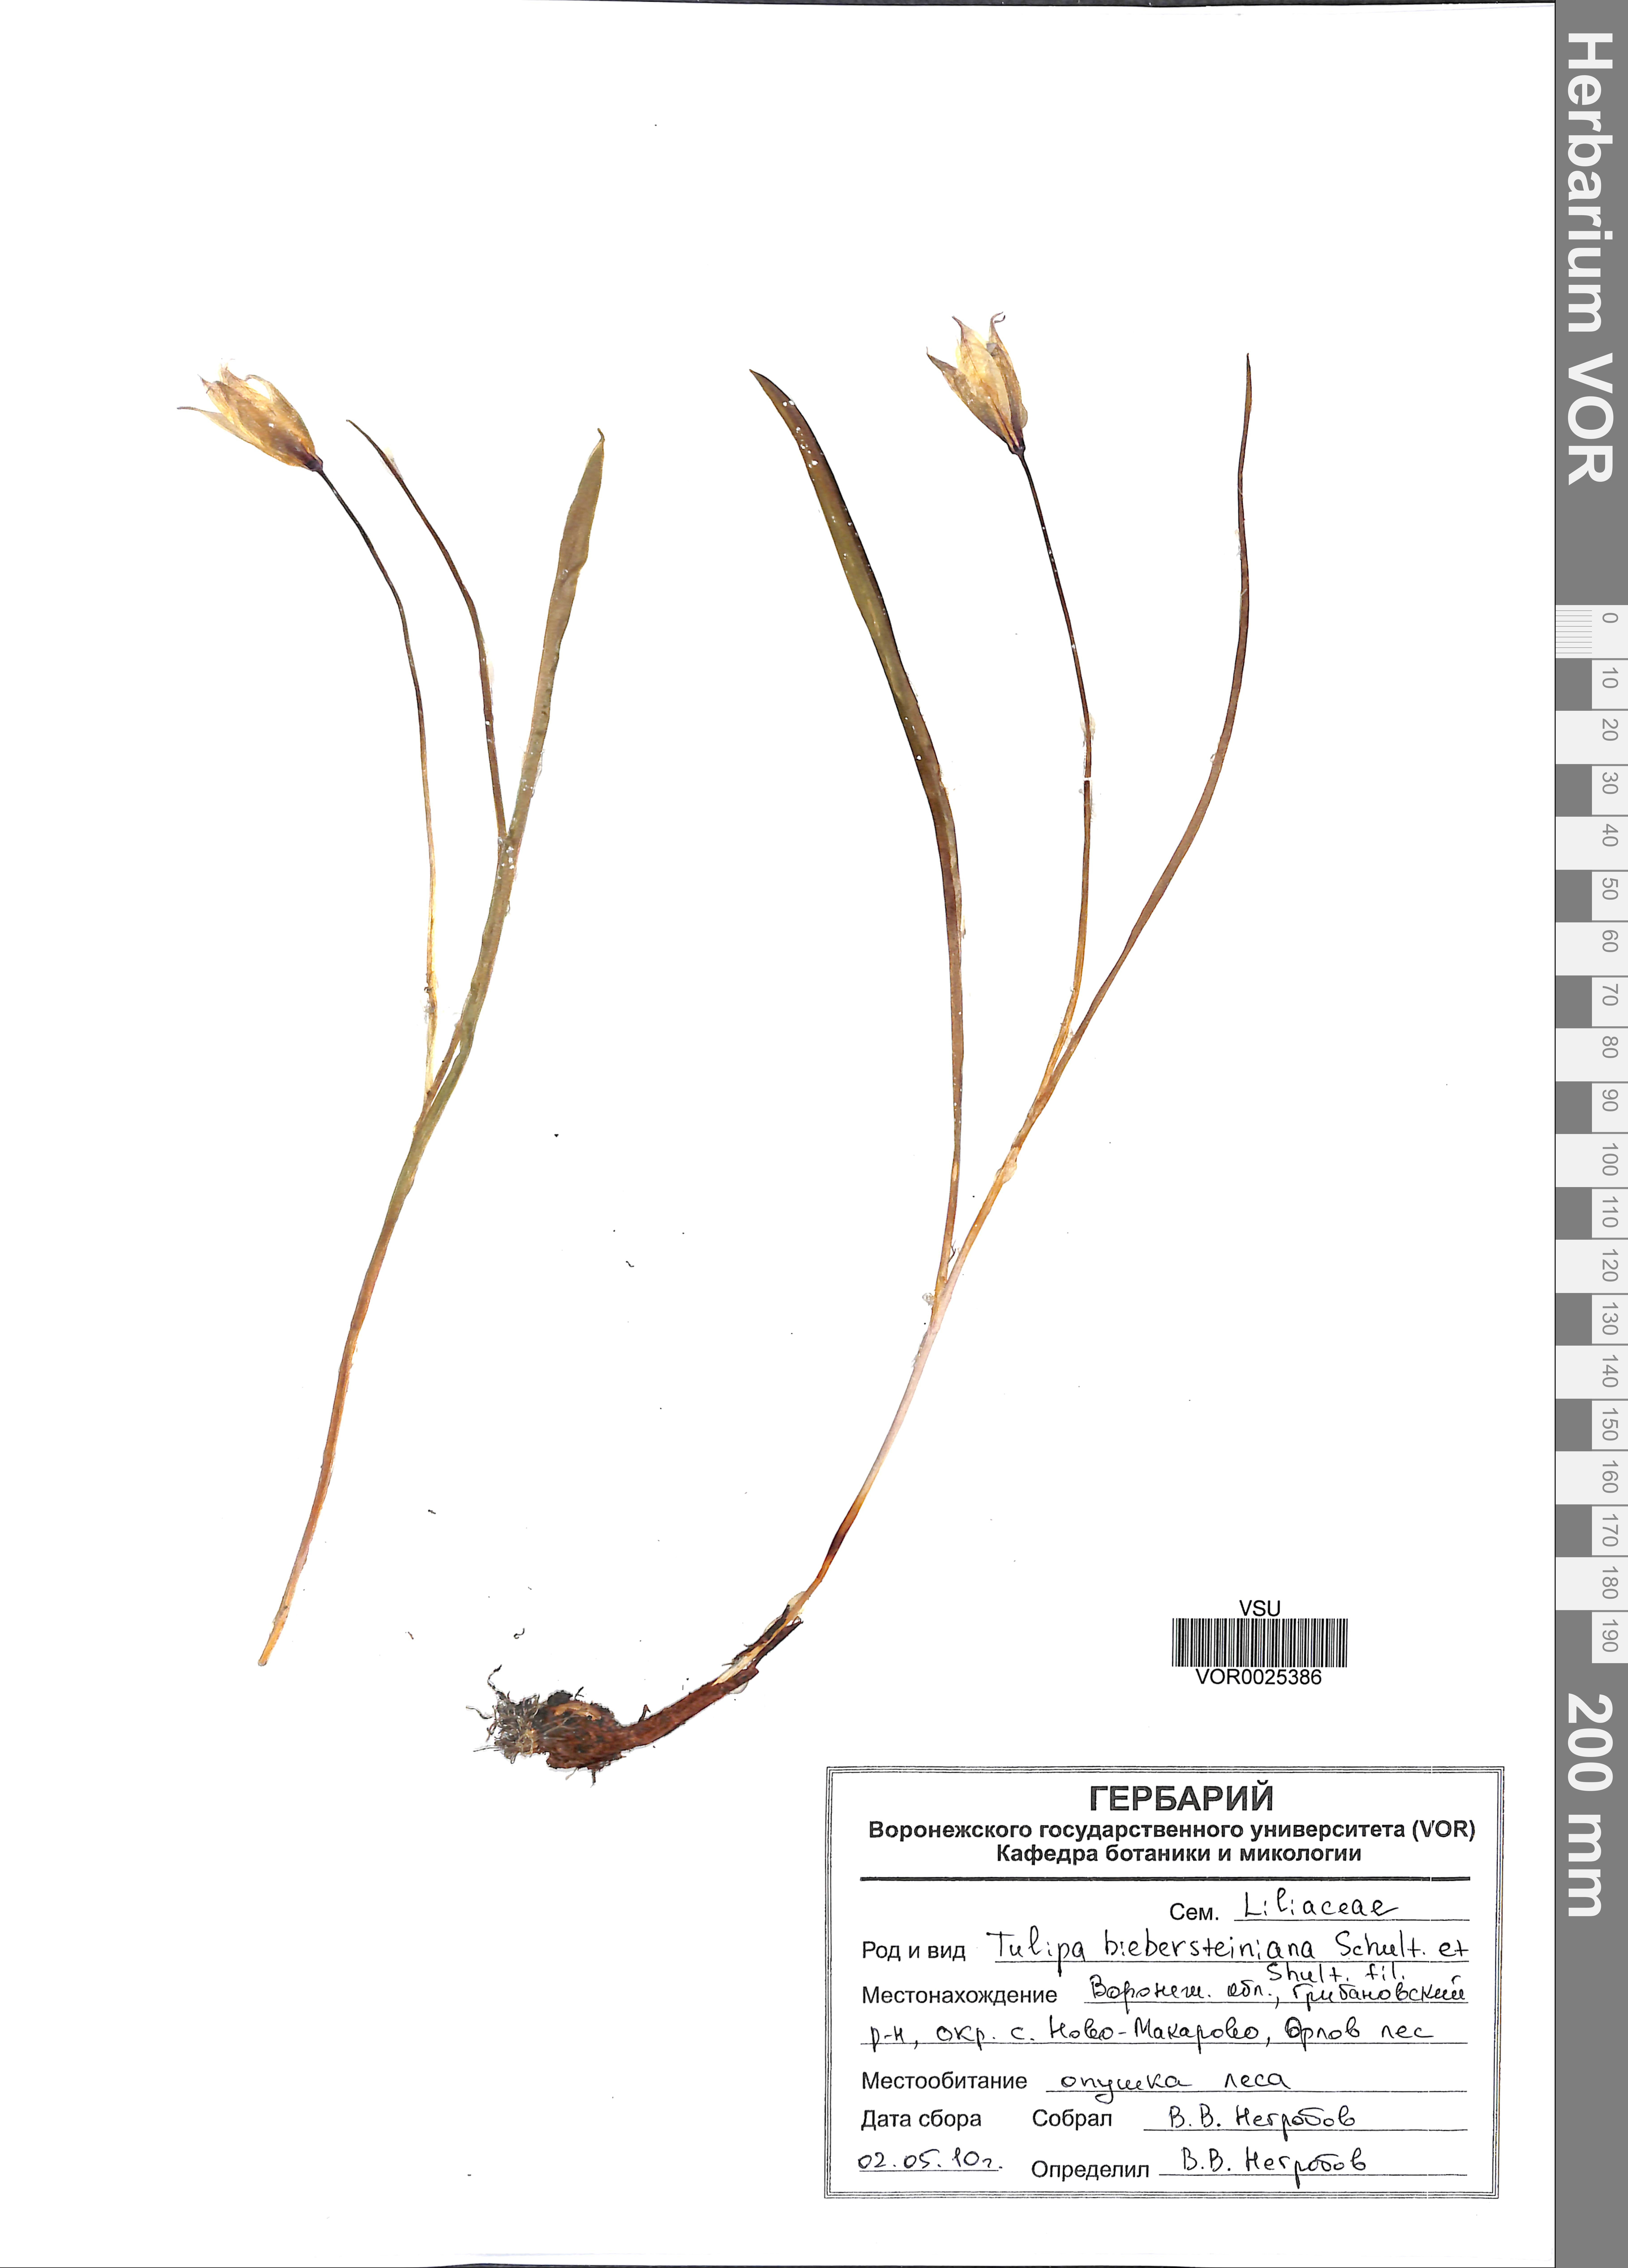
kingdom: Plantae
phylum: Tracheophyta
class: Liliopsida
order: Liliales
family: Liliaceae
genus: Tulipa
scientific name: Tulipa sylvestris
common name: Wild tulip
